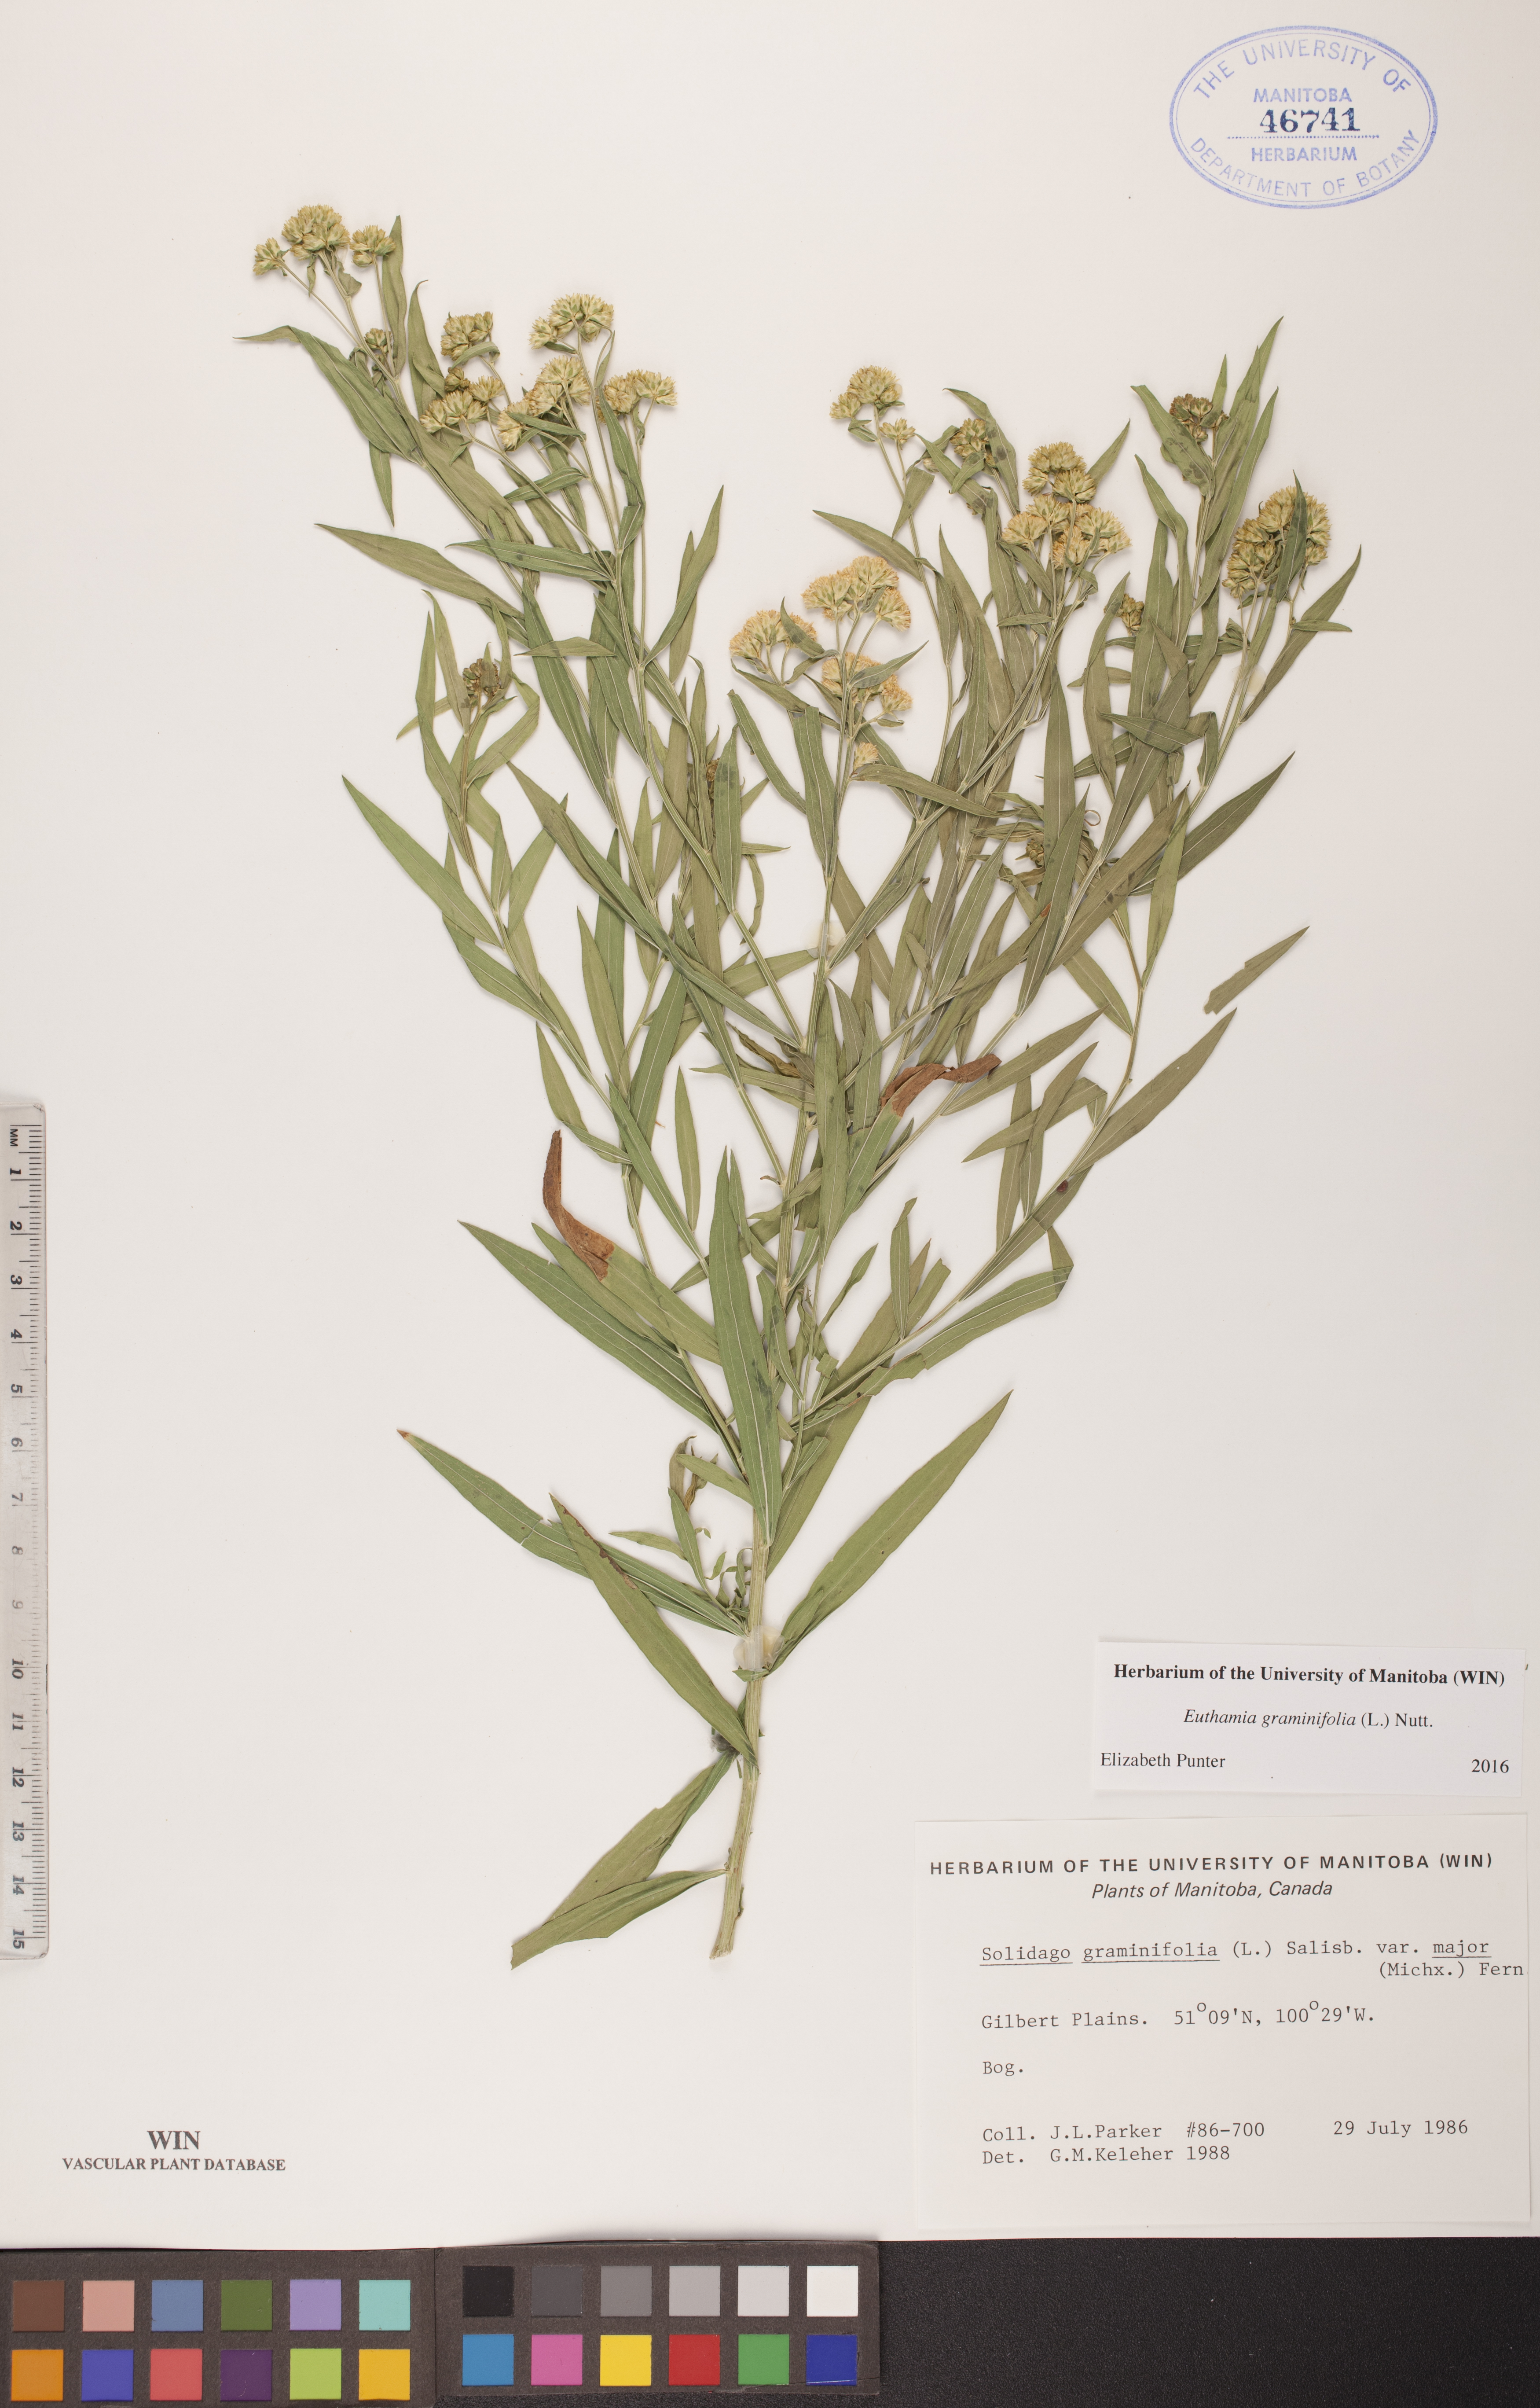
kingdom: Plantae
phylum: Tracheophyta
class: Magnoliopsida
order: Asterales
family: Asteraceae
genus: Euthamia
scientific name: Euthamia graminifolia
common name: Common goldentop
